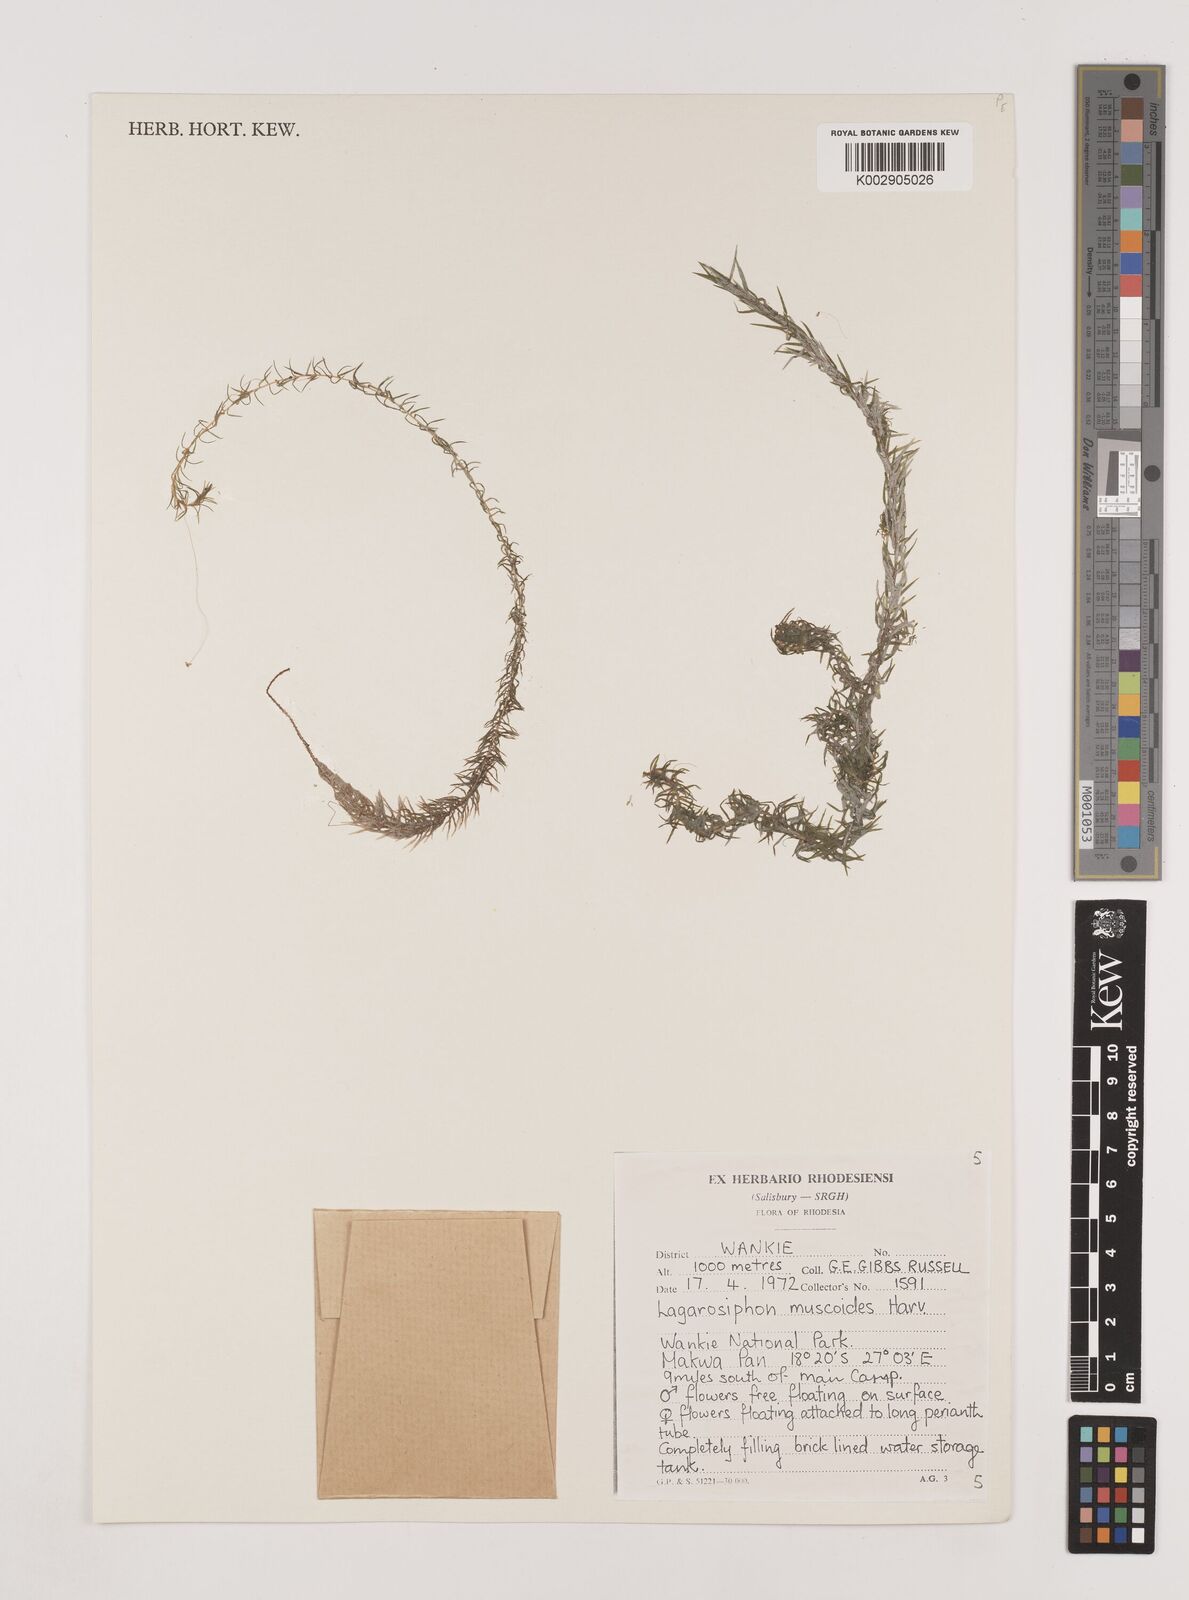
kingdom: Plantae
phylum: Tracheophyta
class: Liliopsida
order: Alismatales
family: Hydrocharitaceae
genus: Lagarosiphon
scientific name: Lagarosiphon muscoides
